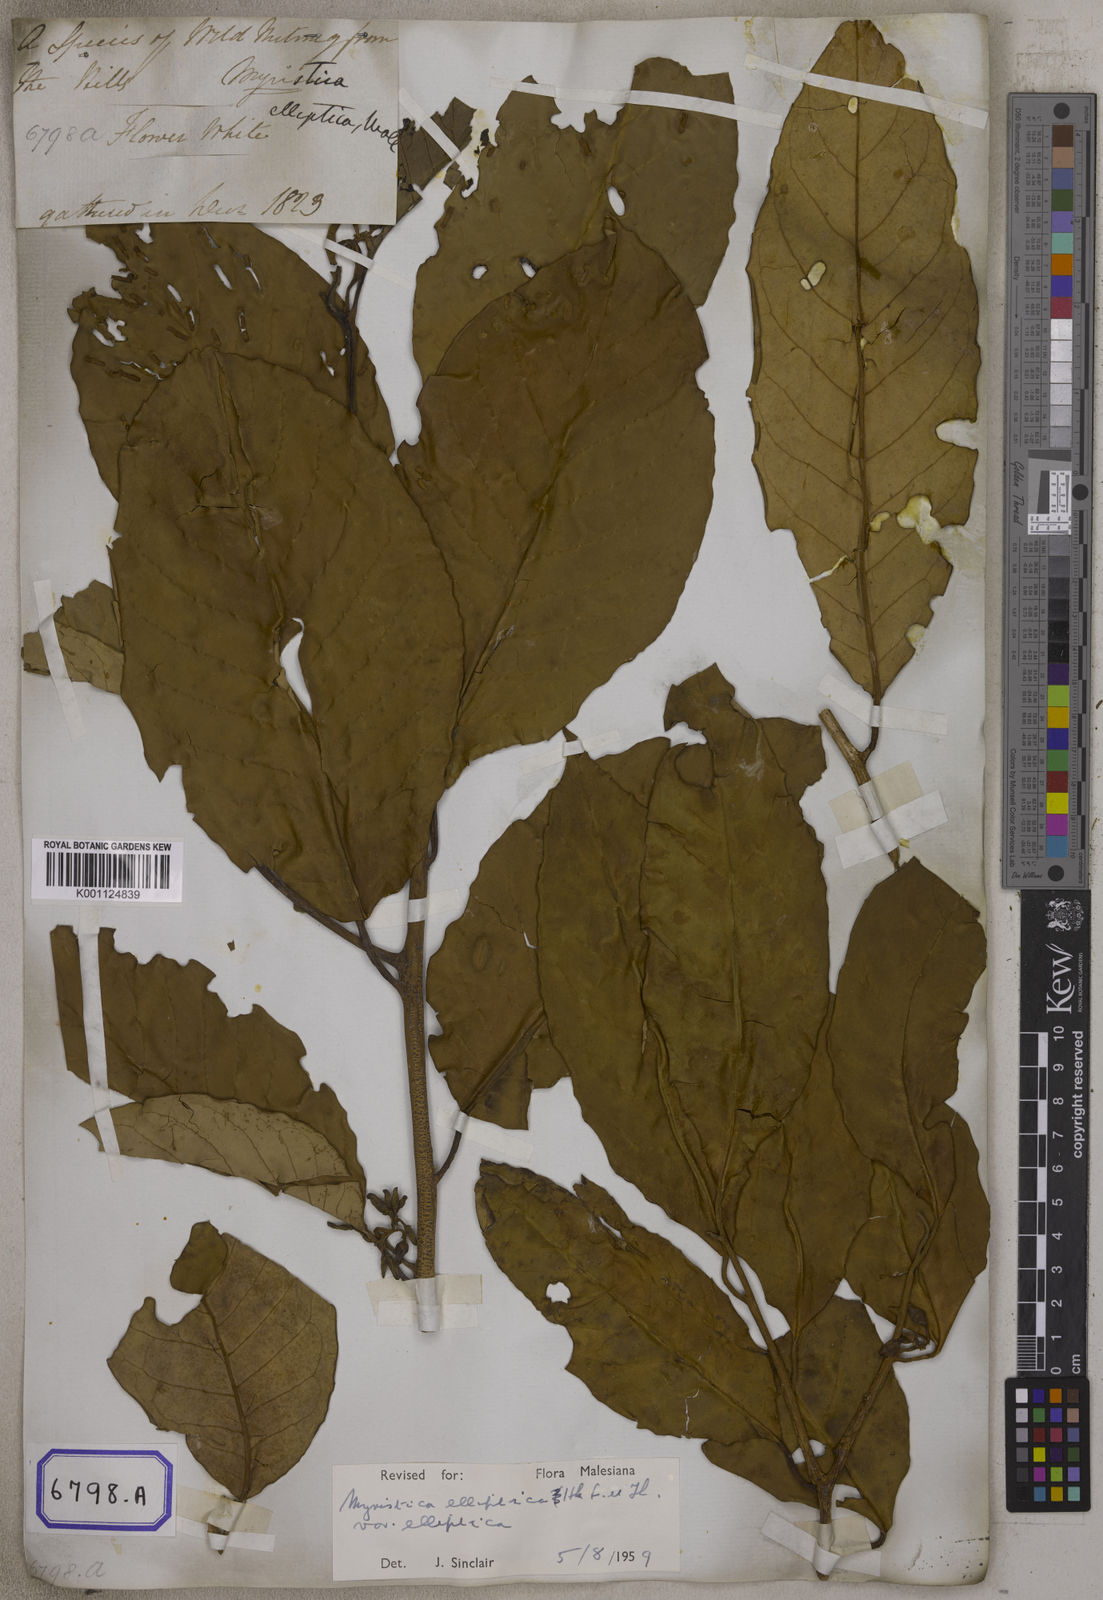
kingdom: Plantae
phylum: Tracheophyta
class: Magnoliopsida
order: Magnoliales
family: Myristicaceae
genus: Myristica
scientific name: Myristica
